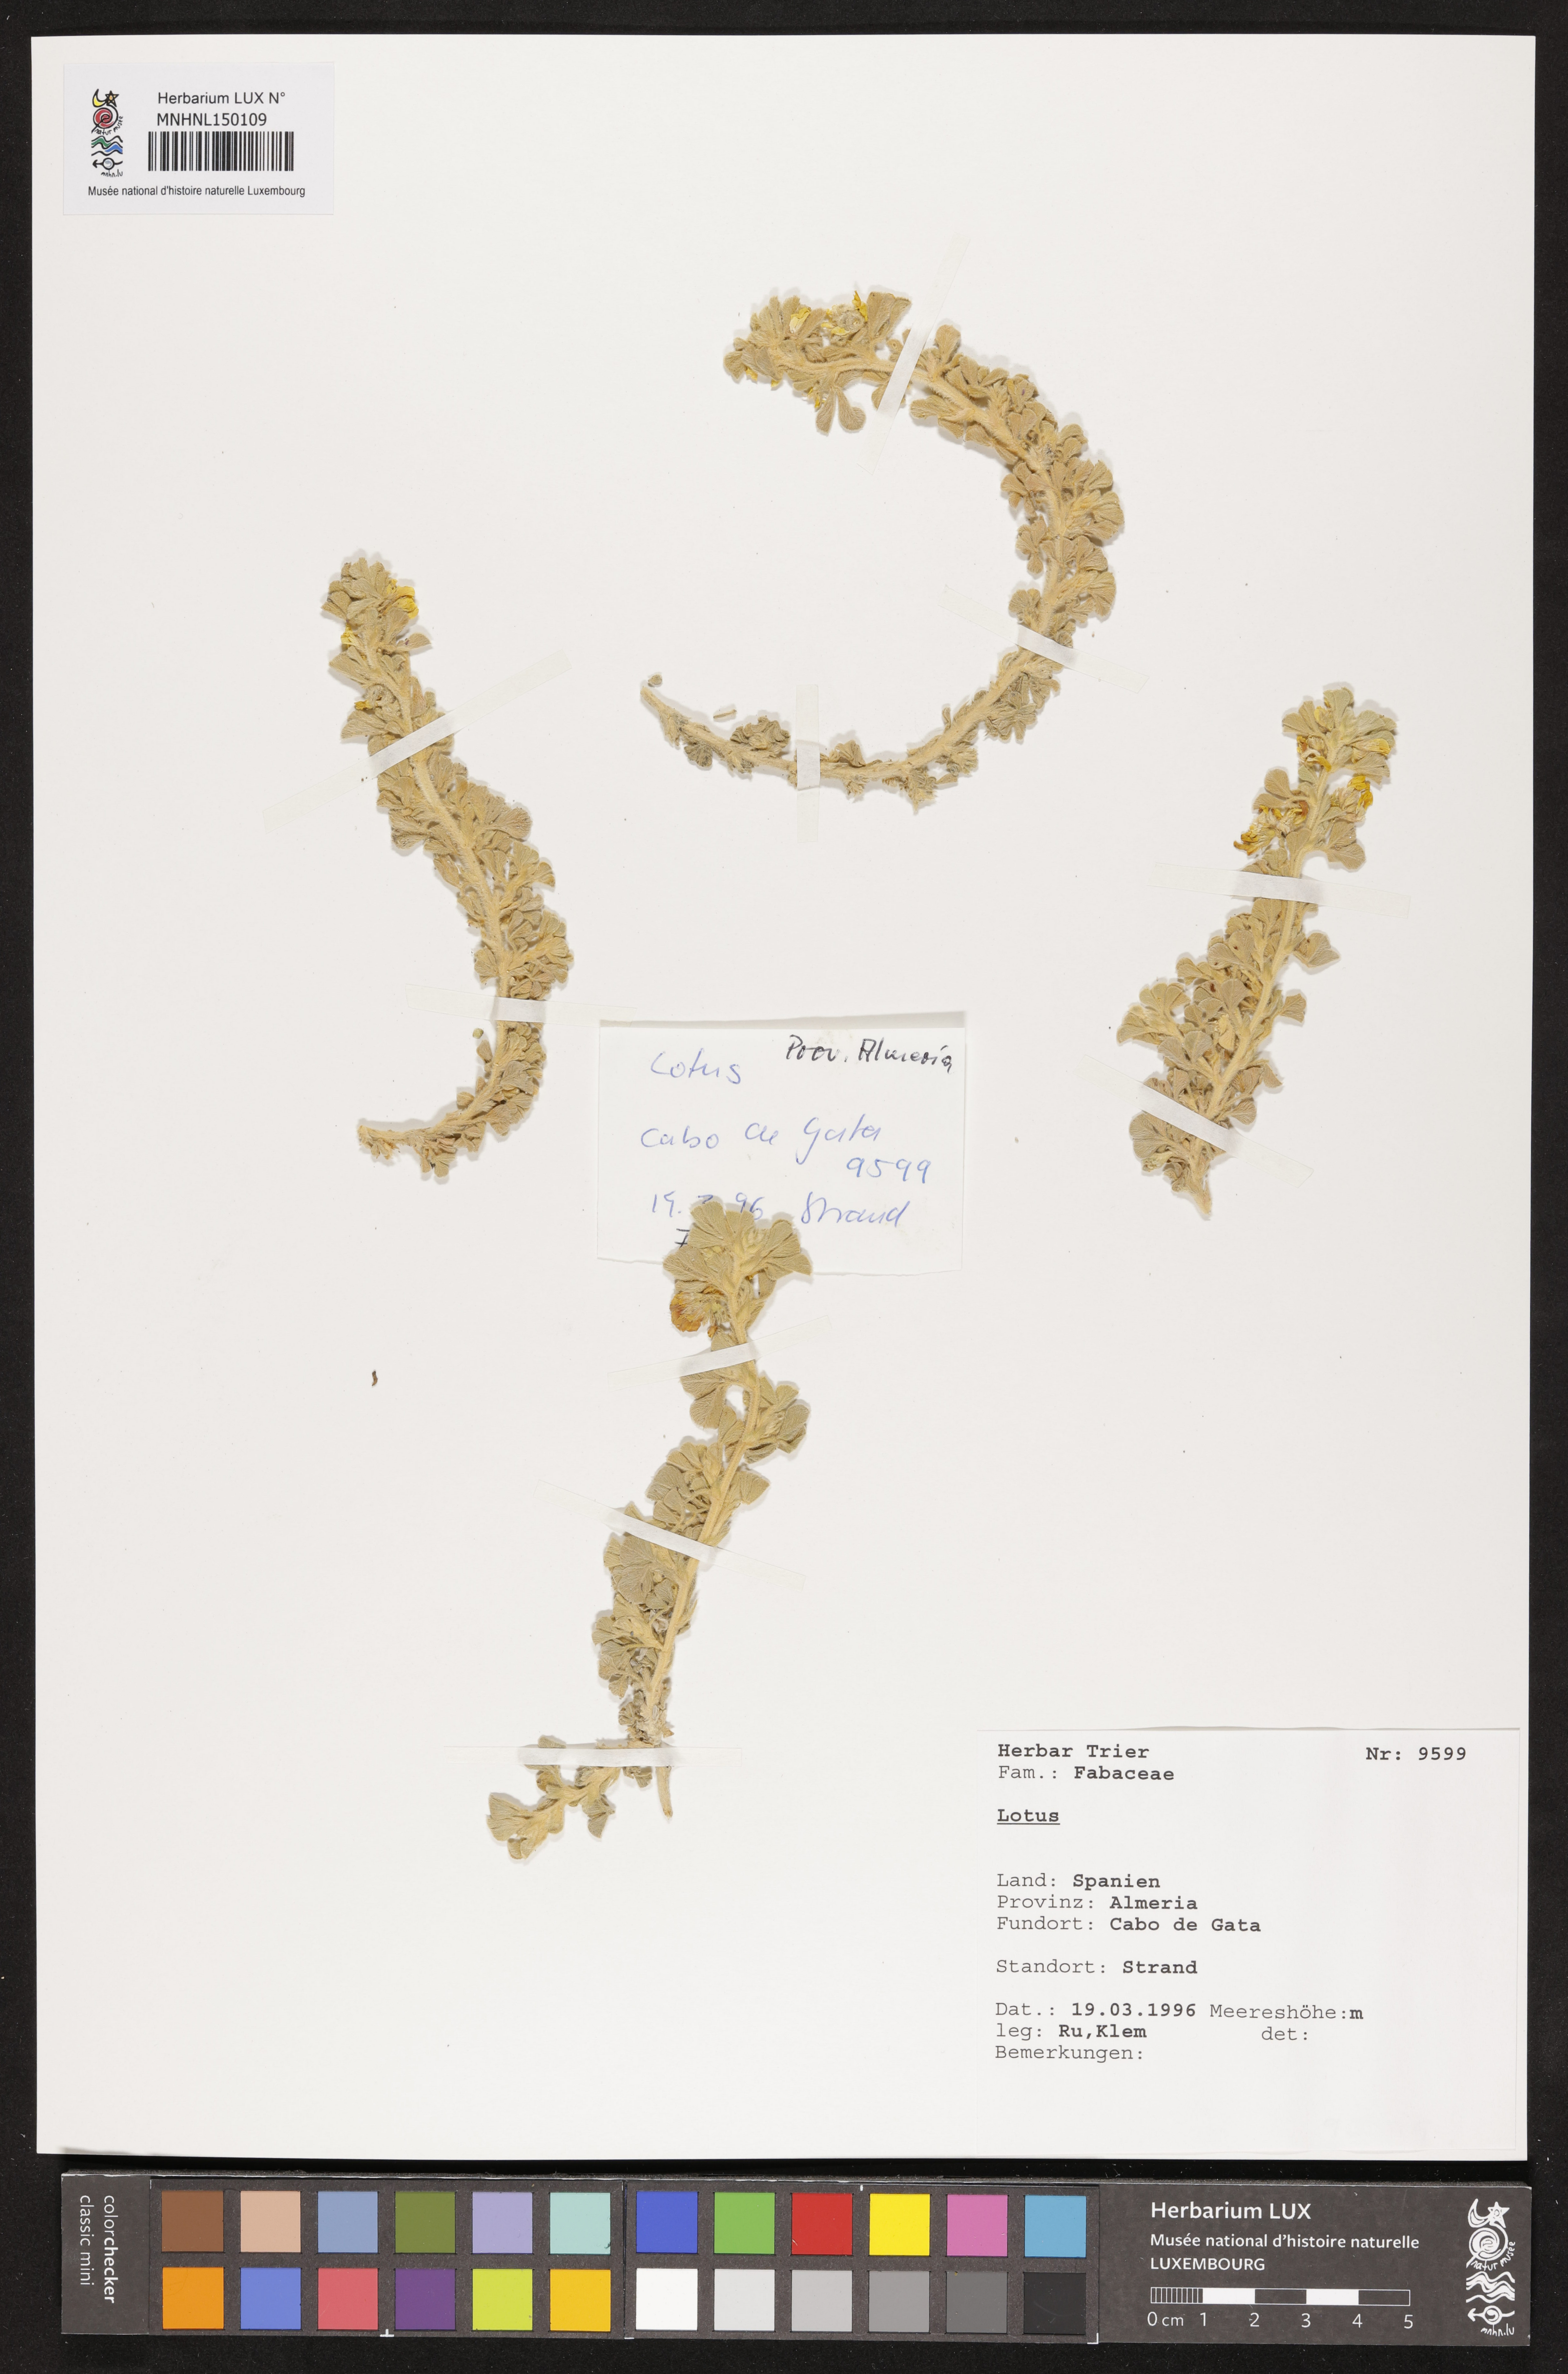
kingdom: Plantae
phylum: Tracheophyta
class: Magnoliopsida
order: Fabales
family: Fabaceae
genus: Lotus
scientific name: Lotus
